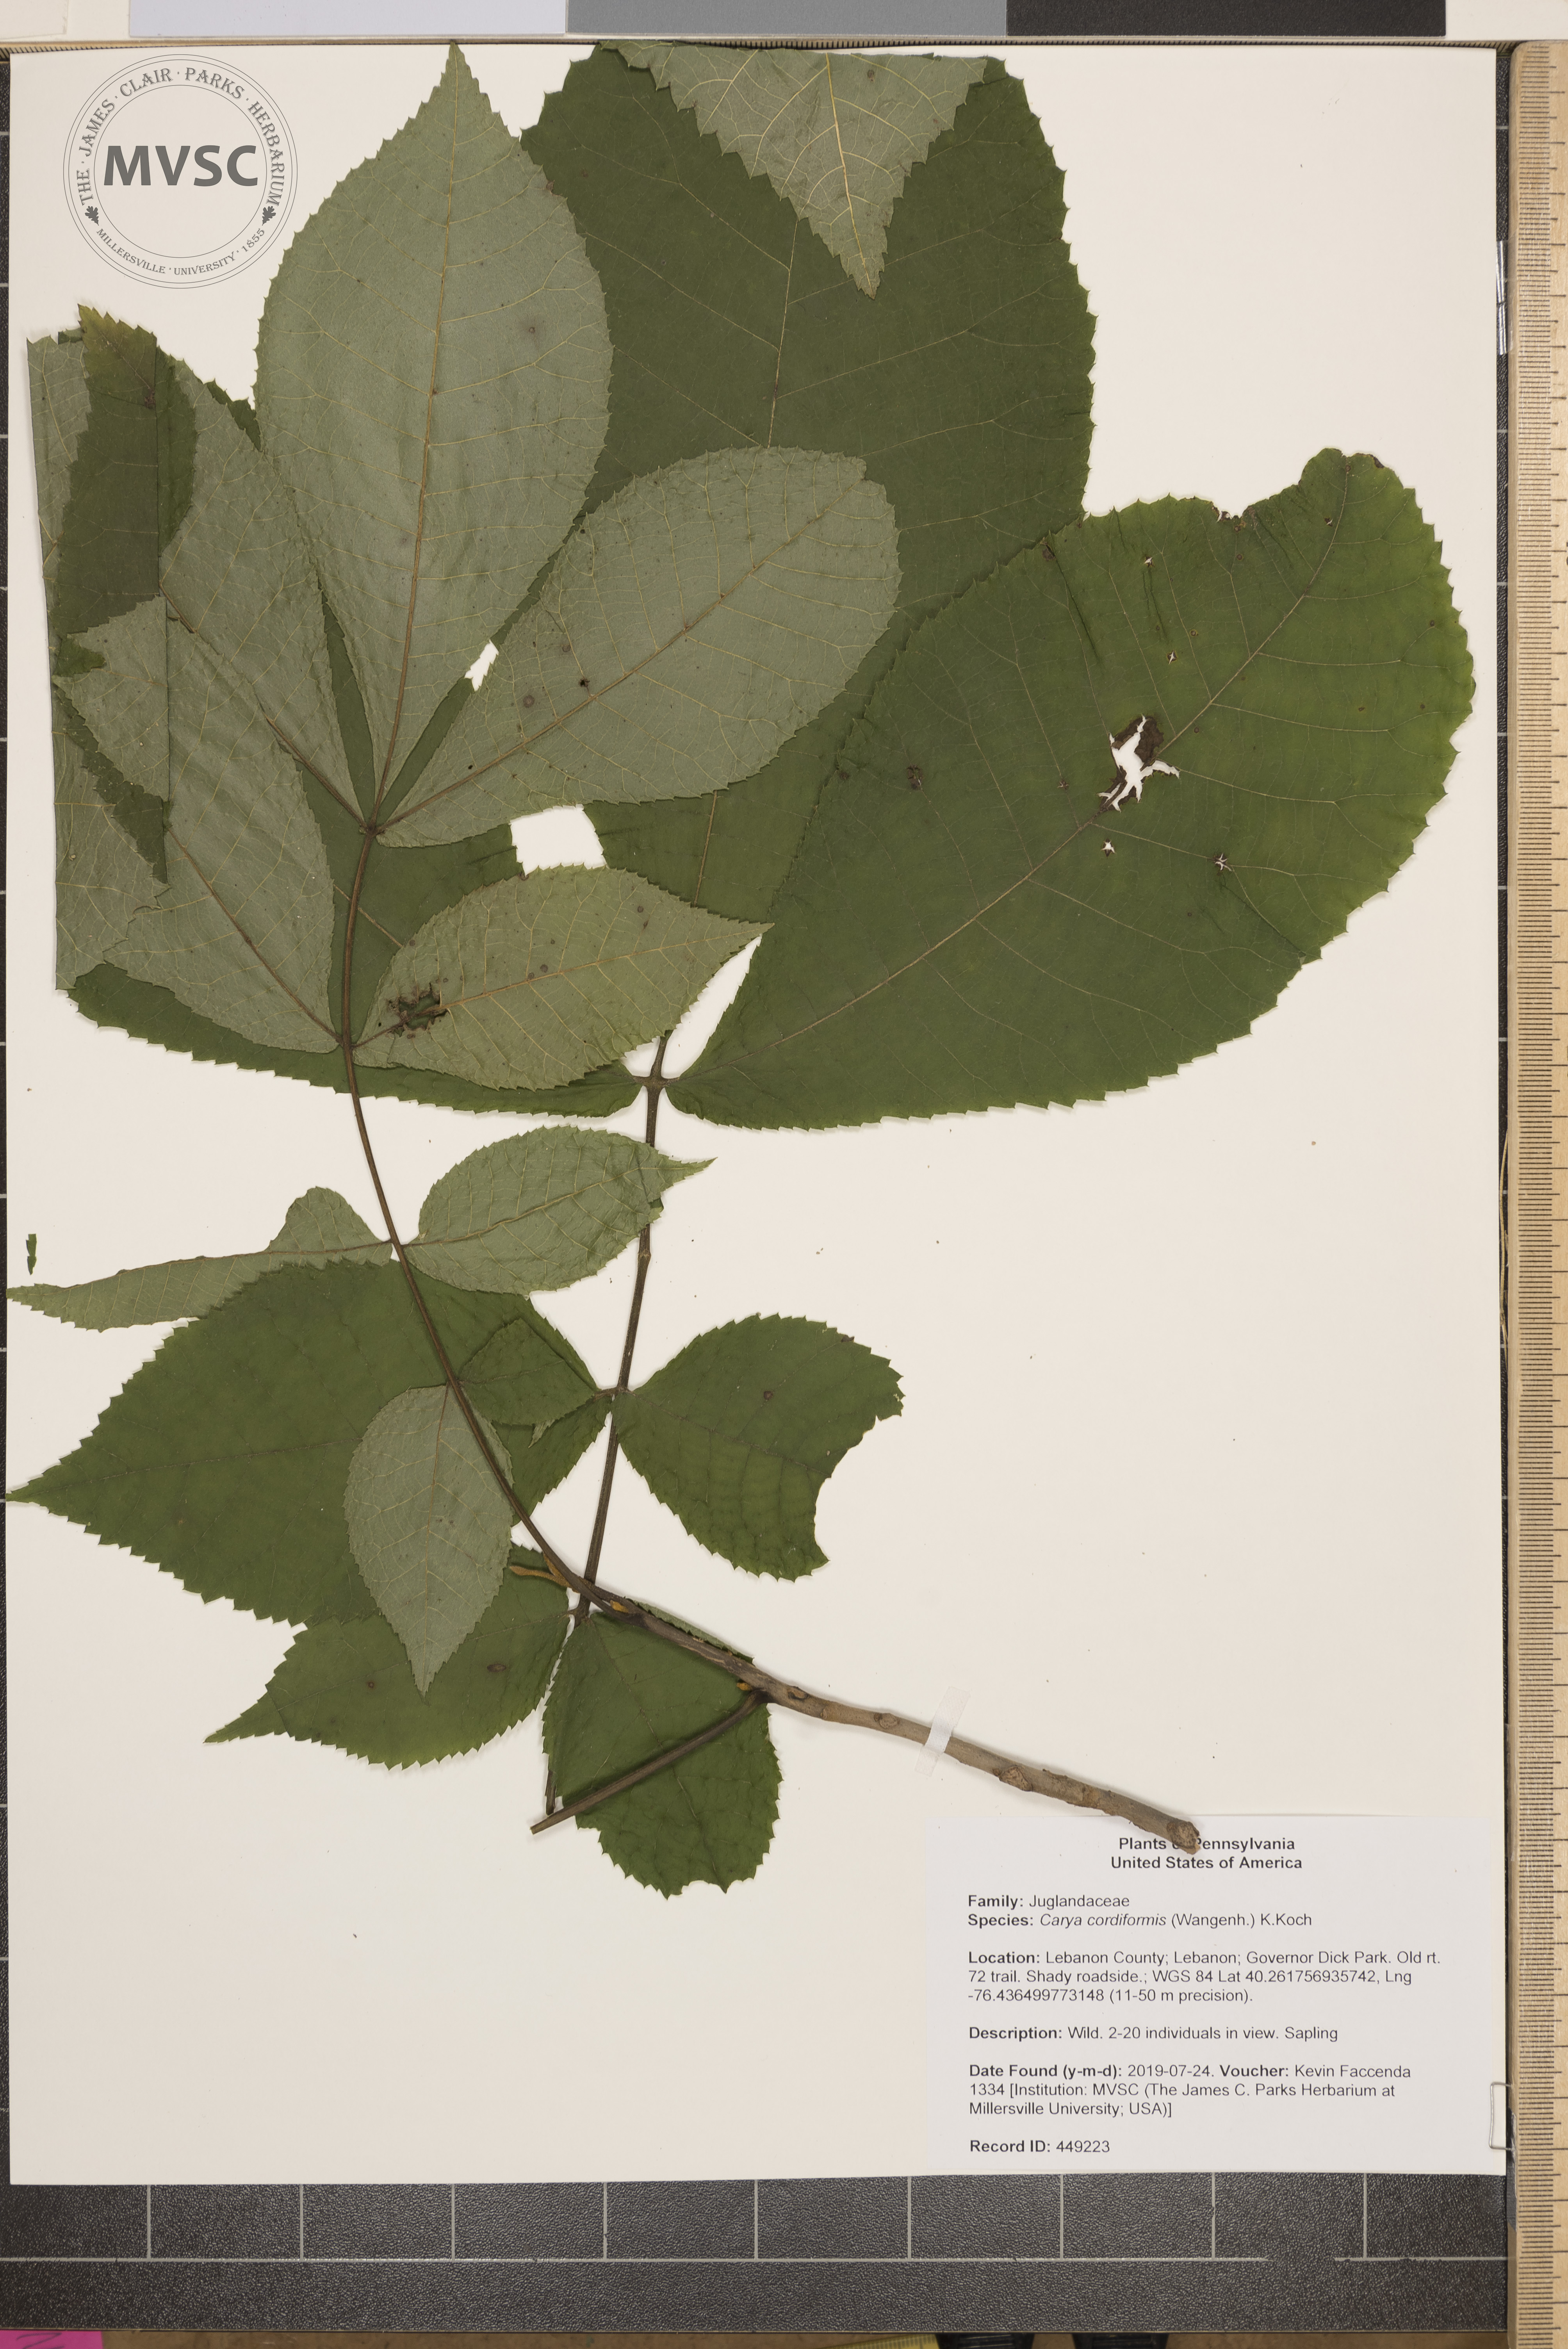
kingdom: Plantae
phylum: Tracheophyta
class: Magnoliopsida
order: Fagales
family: Juglandaceae
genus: Carya
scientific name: Carya cordiformis
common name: Bitternut hickory
